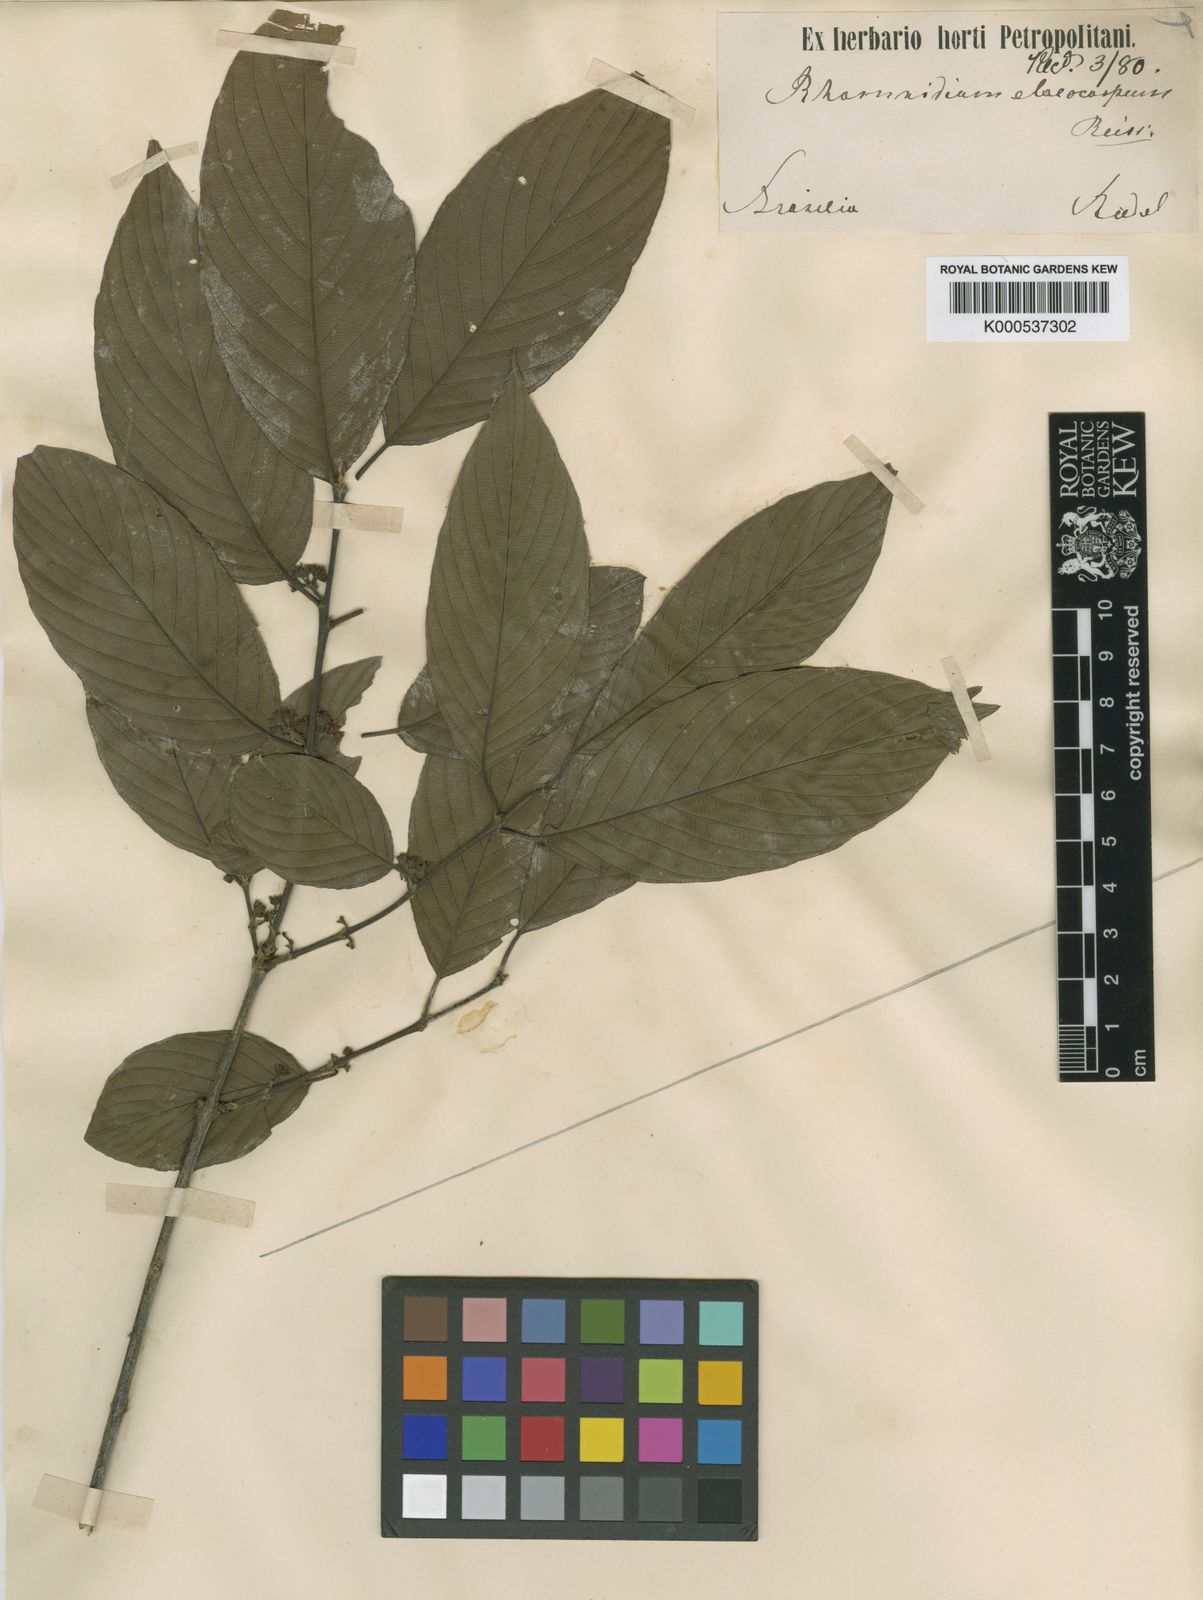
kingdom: Plantae
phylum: Tracheophyta
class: Magnoliopsida
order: Rosales
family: Rhamnaceae
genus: Rhamnidium
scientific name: Rhamnidium elaeocarpum
